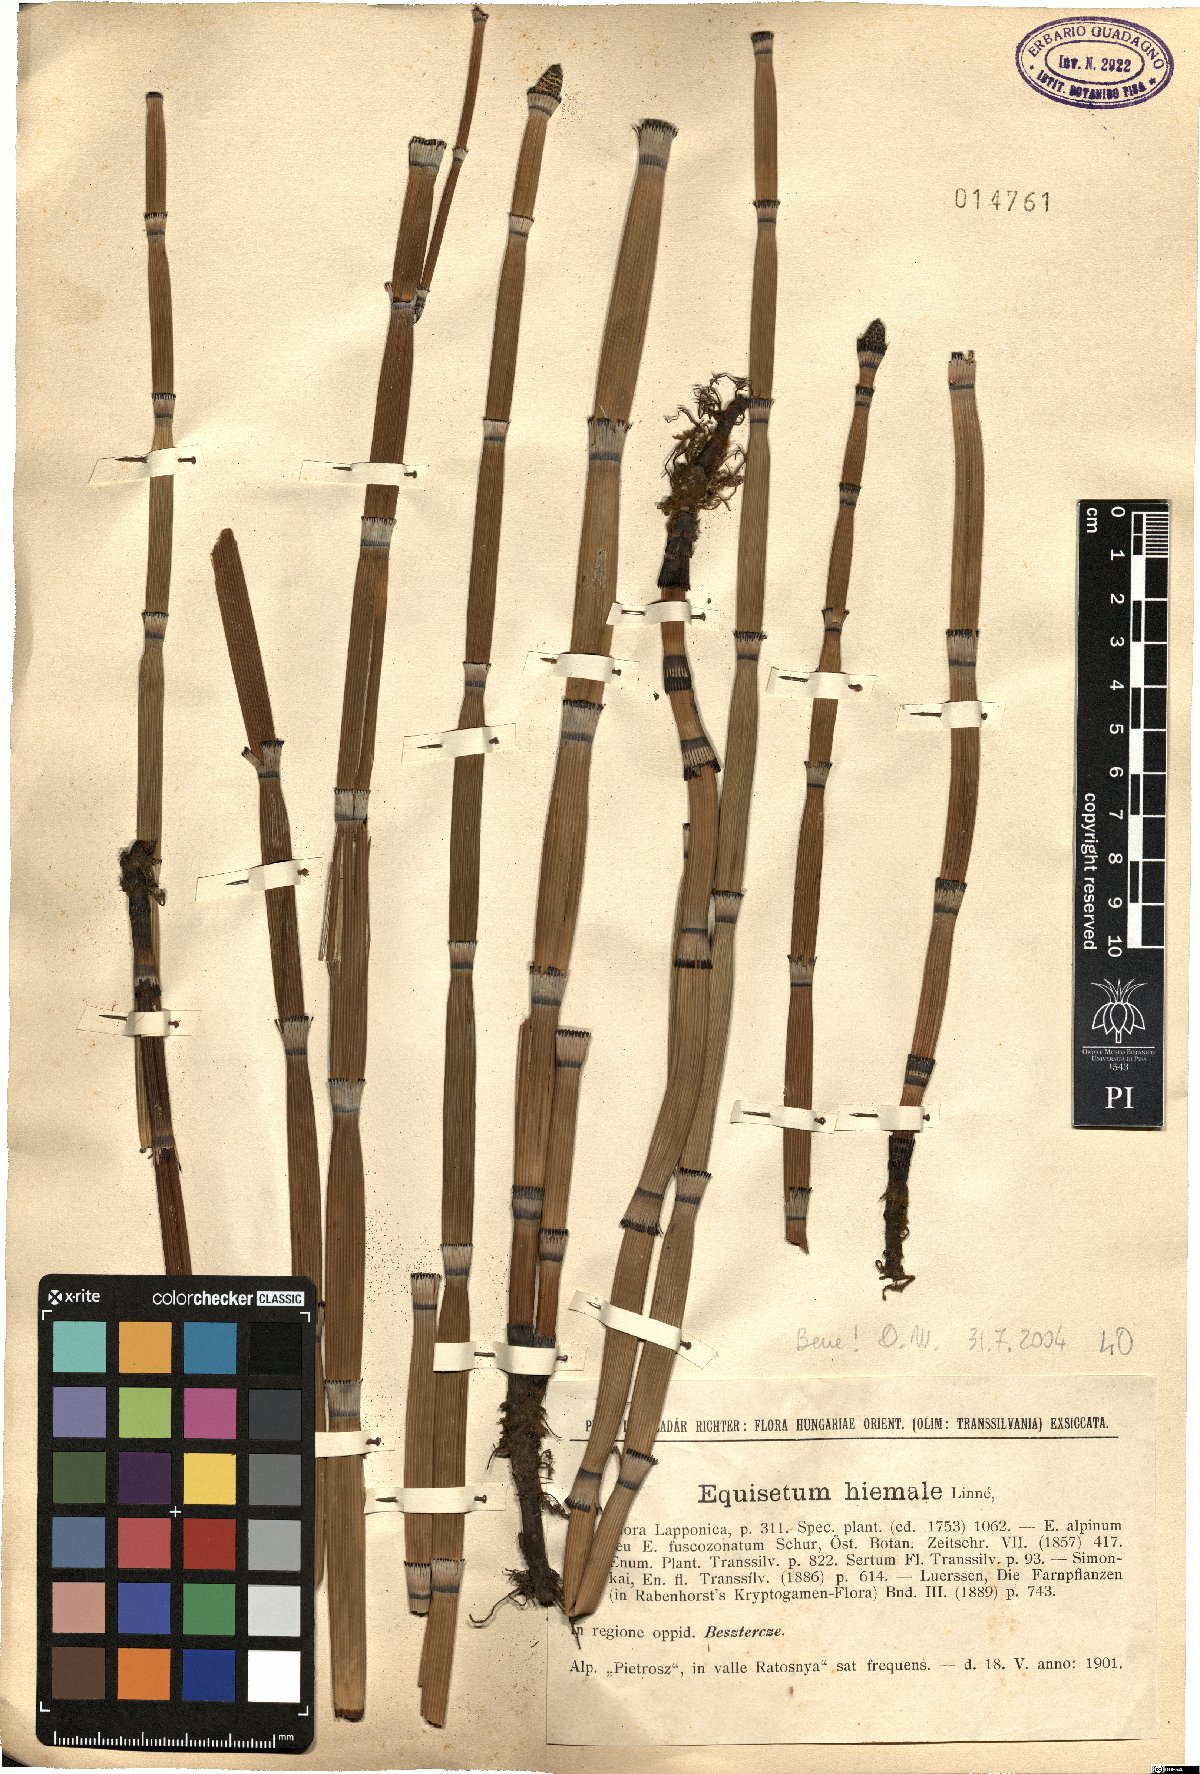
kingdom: Plantae
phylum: Tracheophyta
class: Polypodiopsida
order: Equisetales
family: Equisetaceae
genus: Equisetum
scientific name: Equisetum hyemale
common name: Rough horsetail
